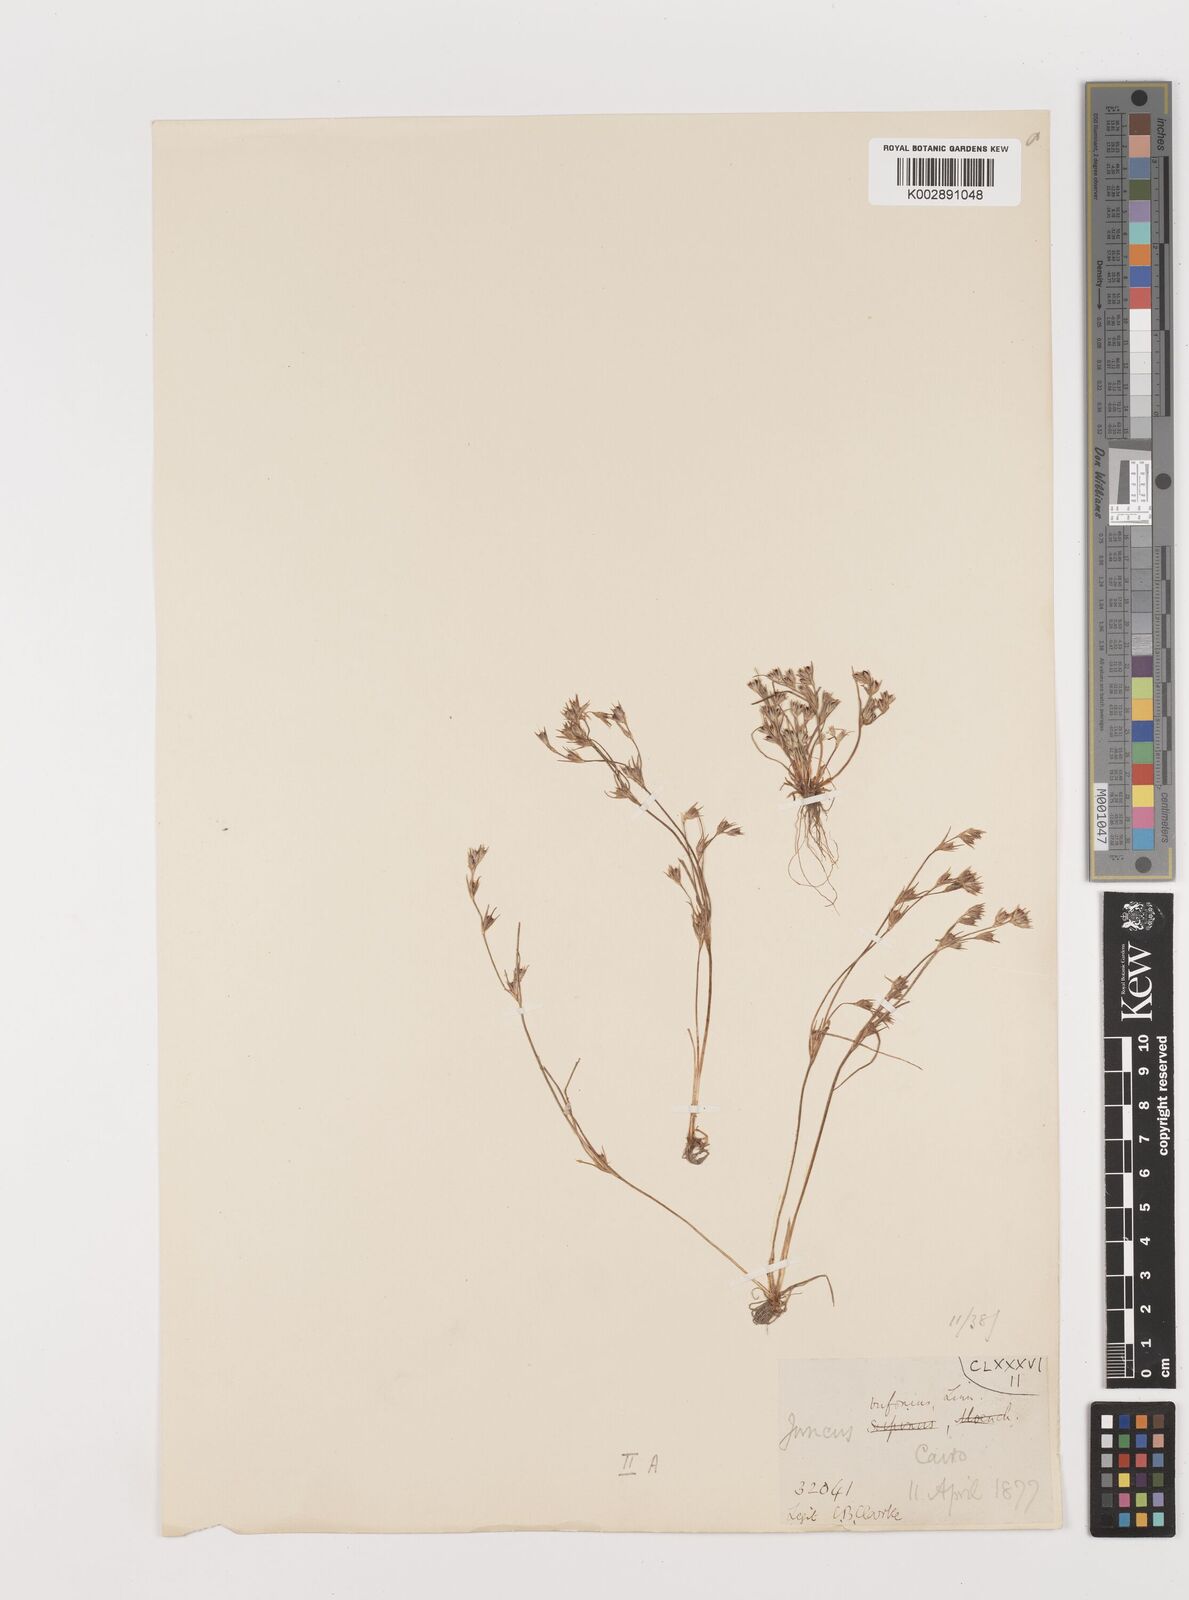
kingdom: Plantae
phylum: Tracheophyta
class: Liliopsida
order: Poales
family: Juncaceae
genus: Juncus
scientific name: Juncus bufonius
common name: Toad rush
